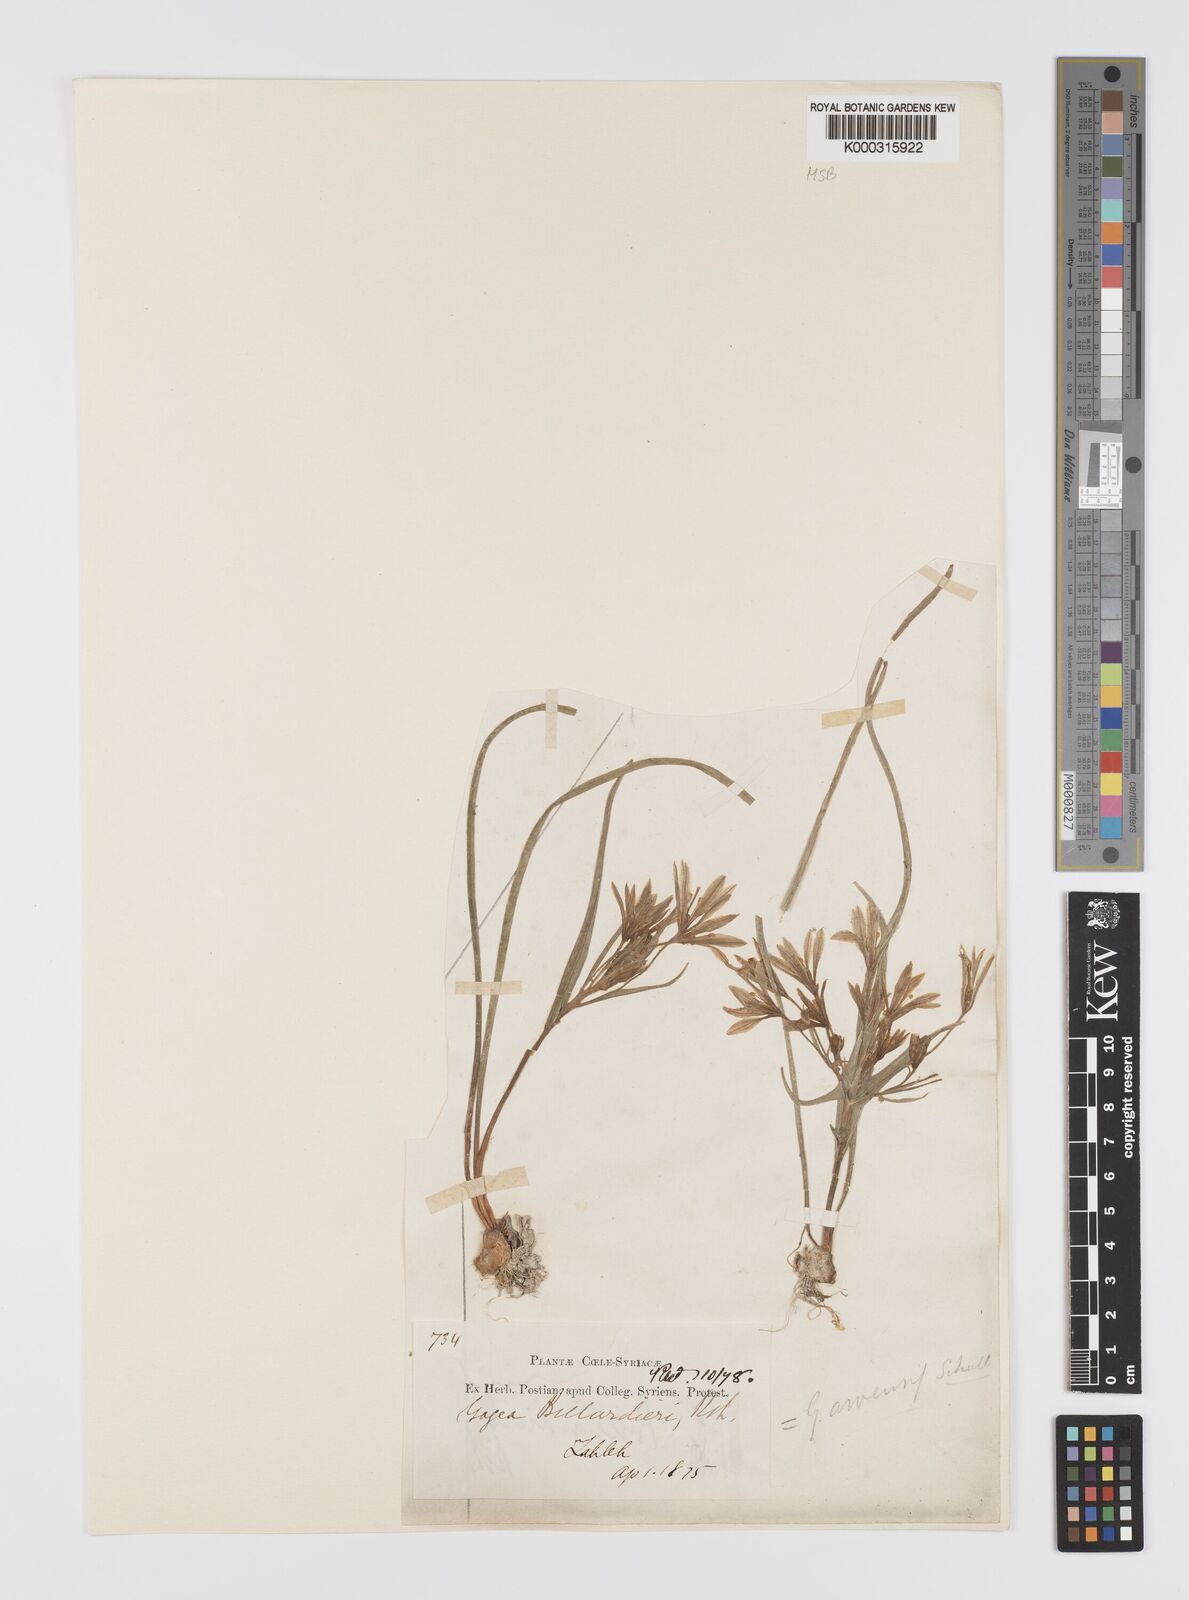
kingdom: Plantae
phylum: Tracheophyta
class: Liliopsida
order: Liliales
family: Liliaceae
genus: Gagea
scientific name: Gagea
